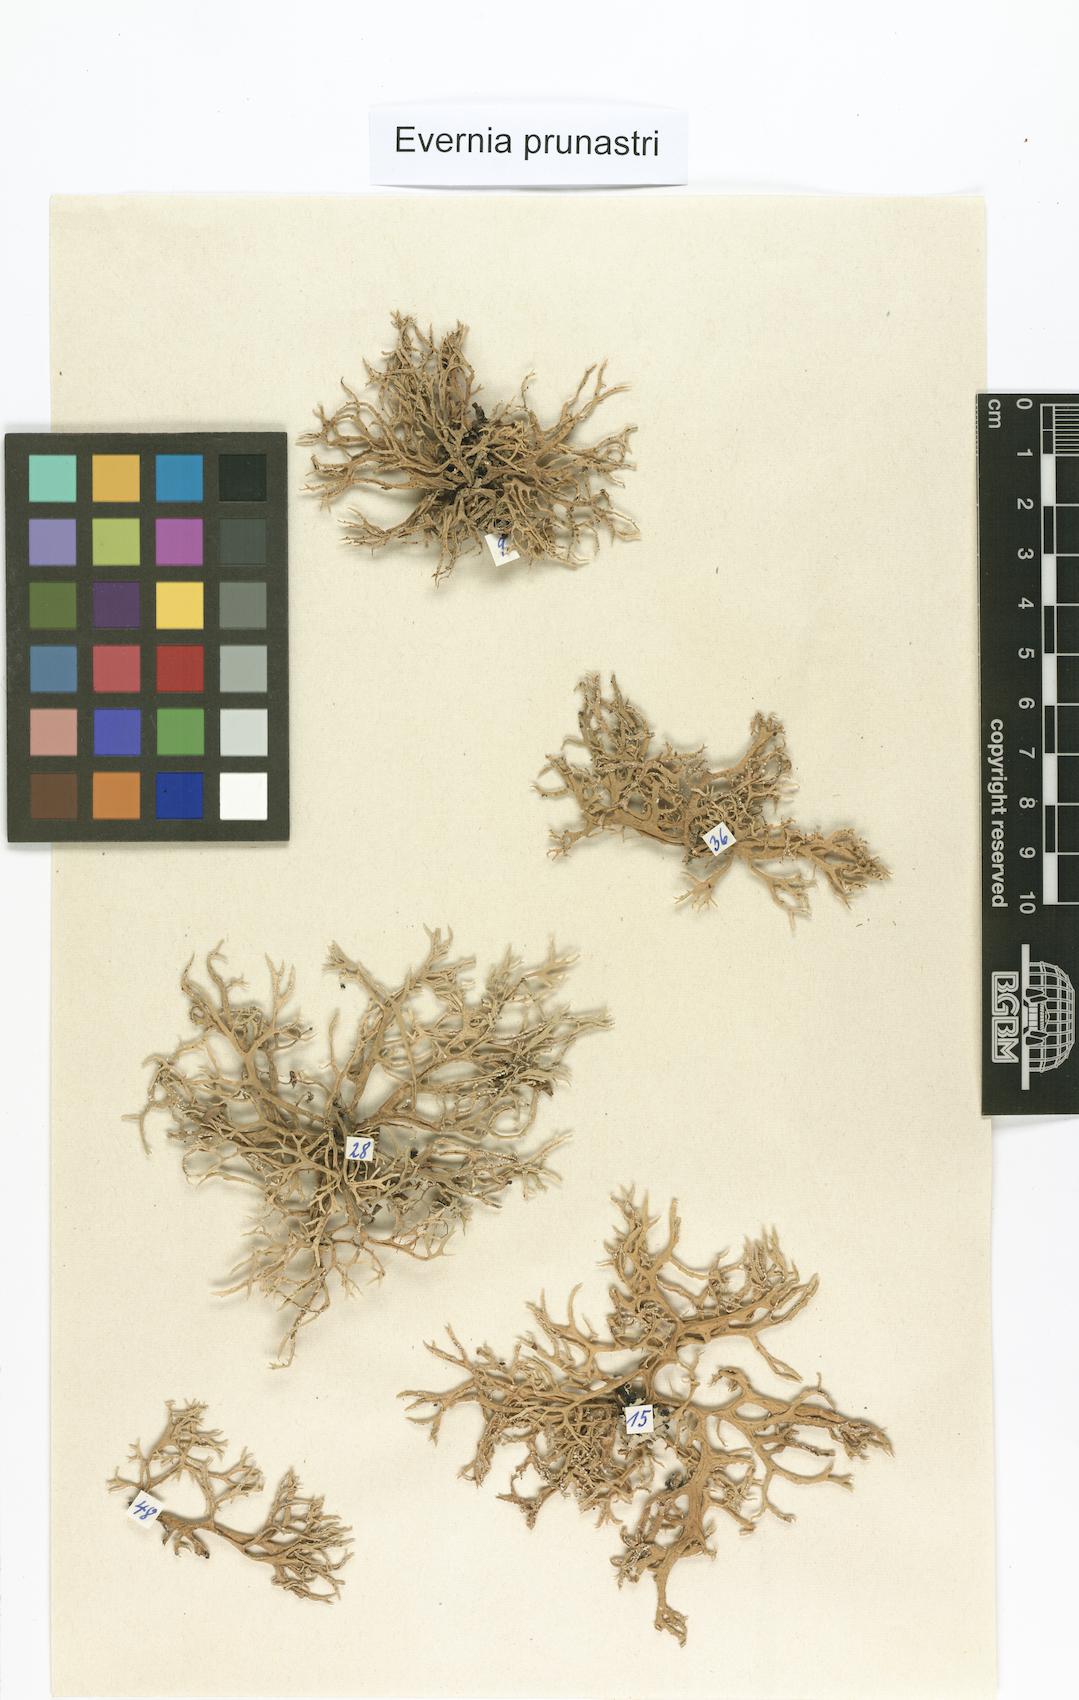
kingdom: Fungi
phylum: Ascomycota
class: Lecanoromycetes
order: Lecanorales
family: Parmeliaceae
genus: Evernia
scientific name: Evernia prunastri
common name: Oak moss
